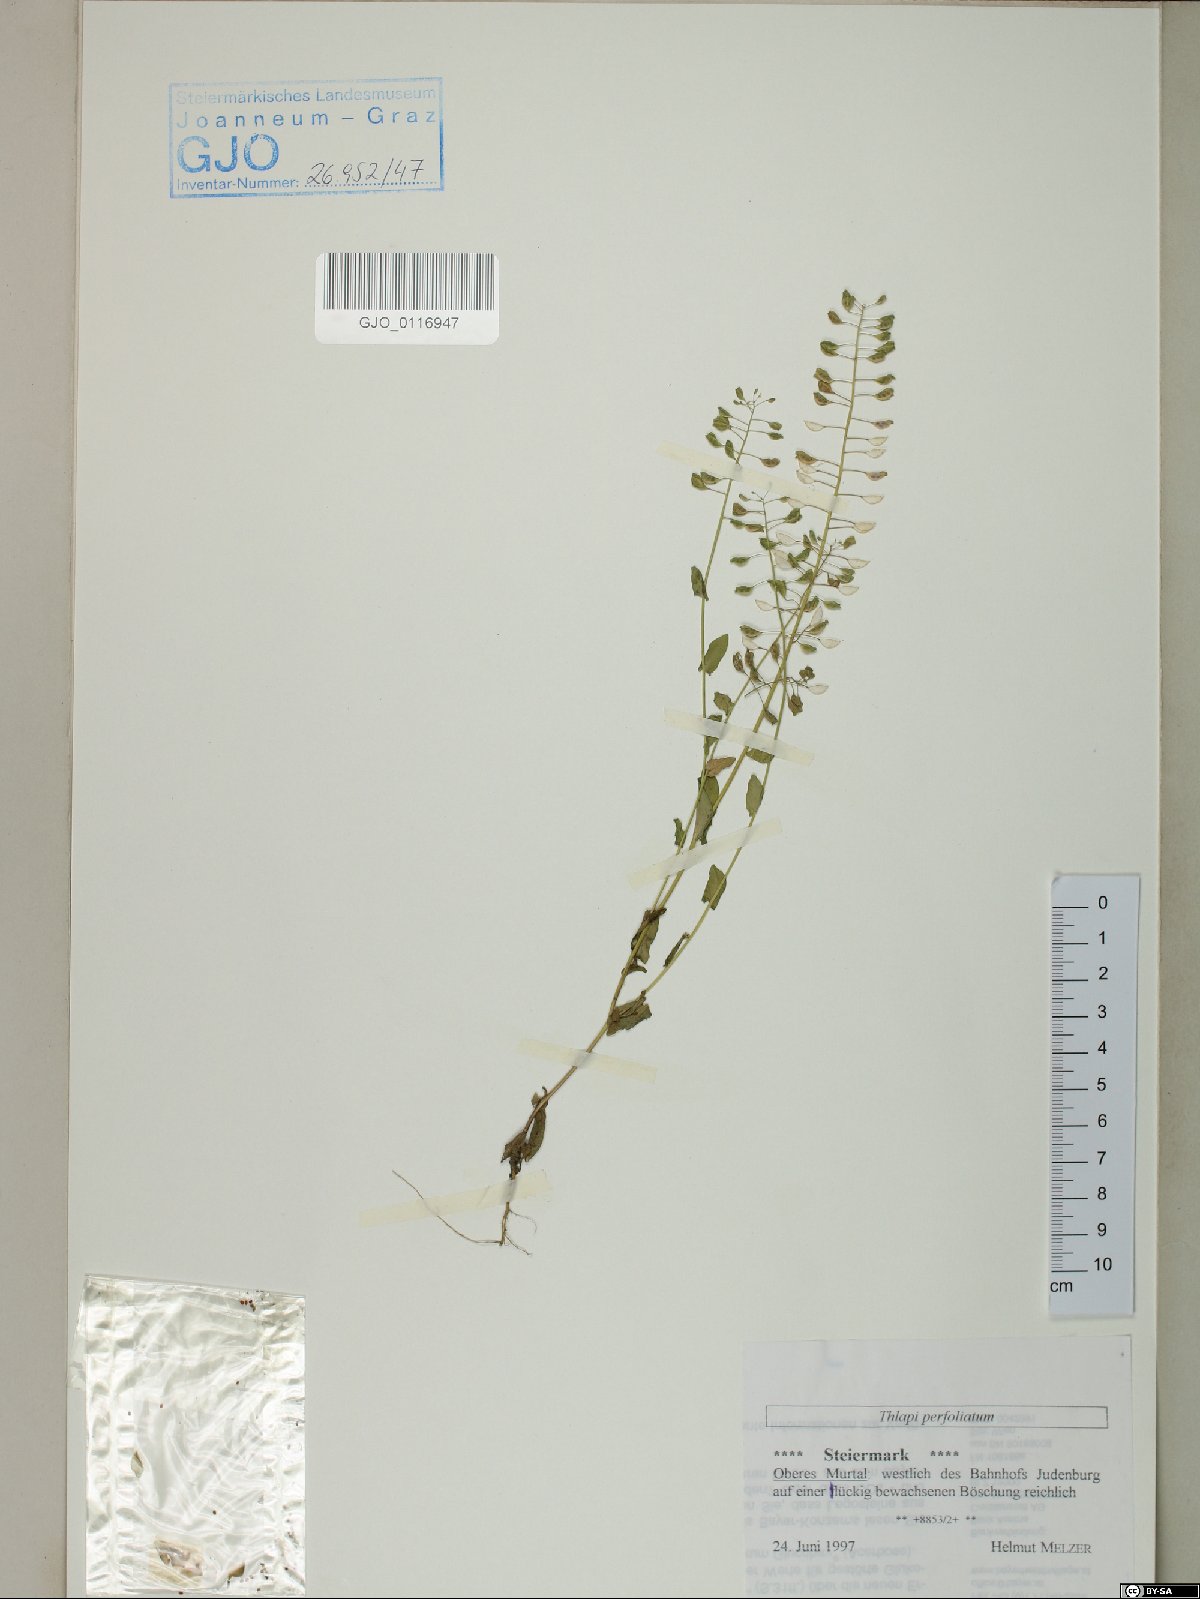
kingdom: Plantae
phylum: Tracheophyta
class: Magnoliopsida
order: Brassicales
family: Brassicaceae
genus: Noccaea
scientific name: Noccaea perfoliata
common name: Perfoliate pennycress
